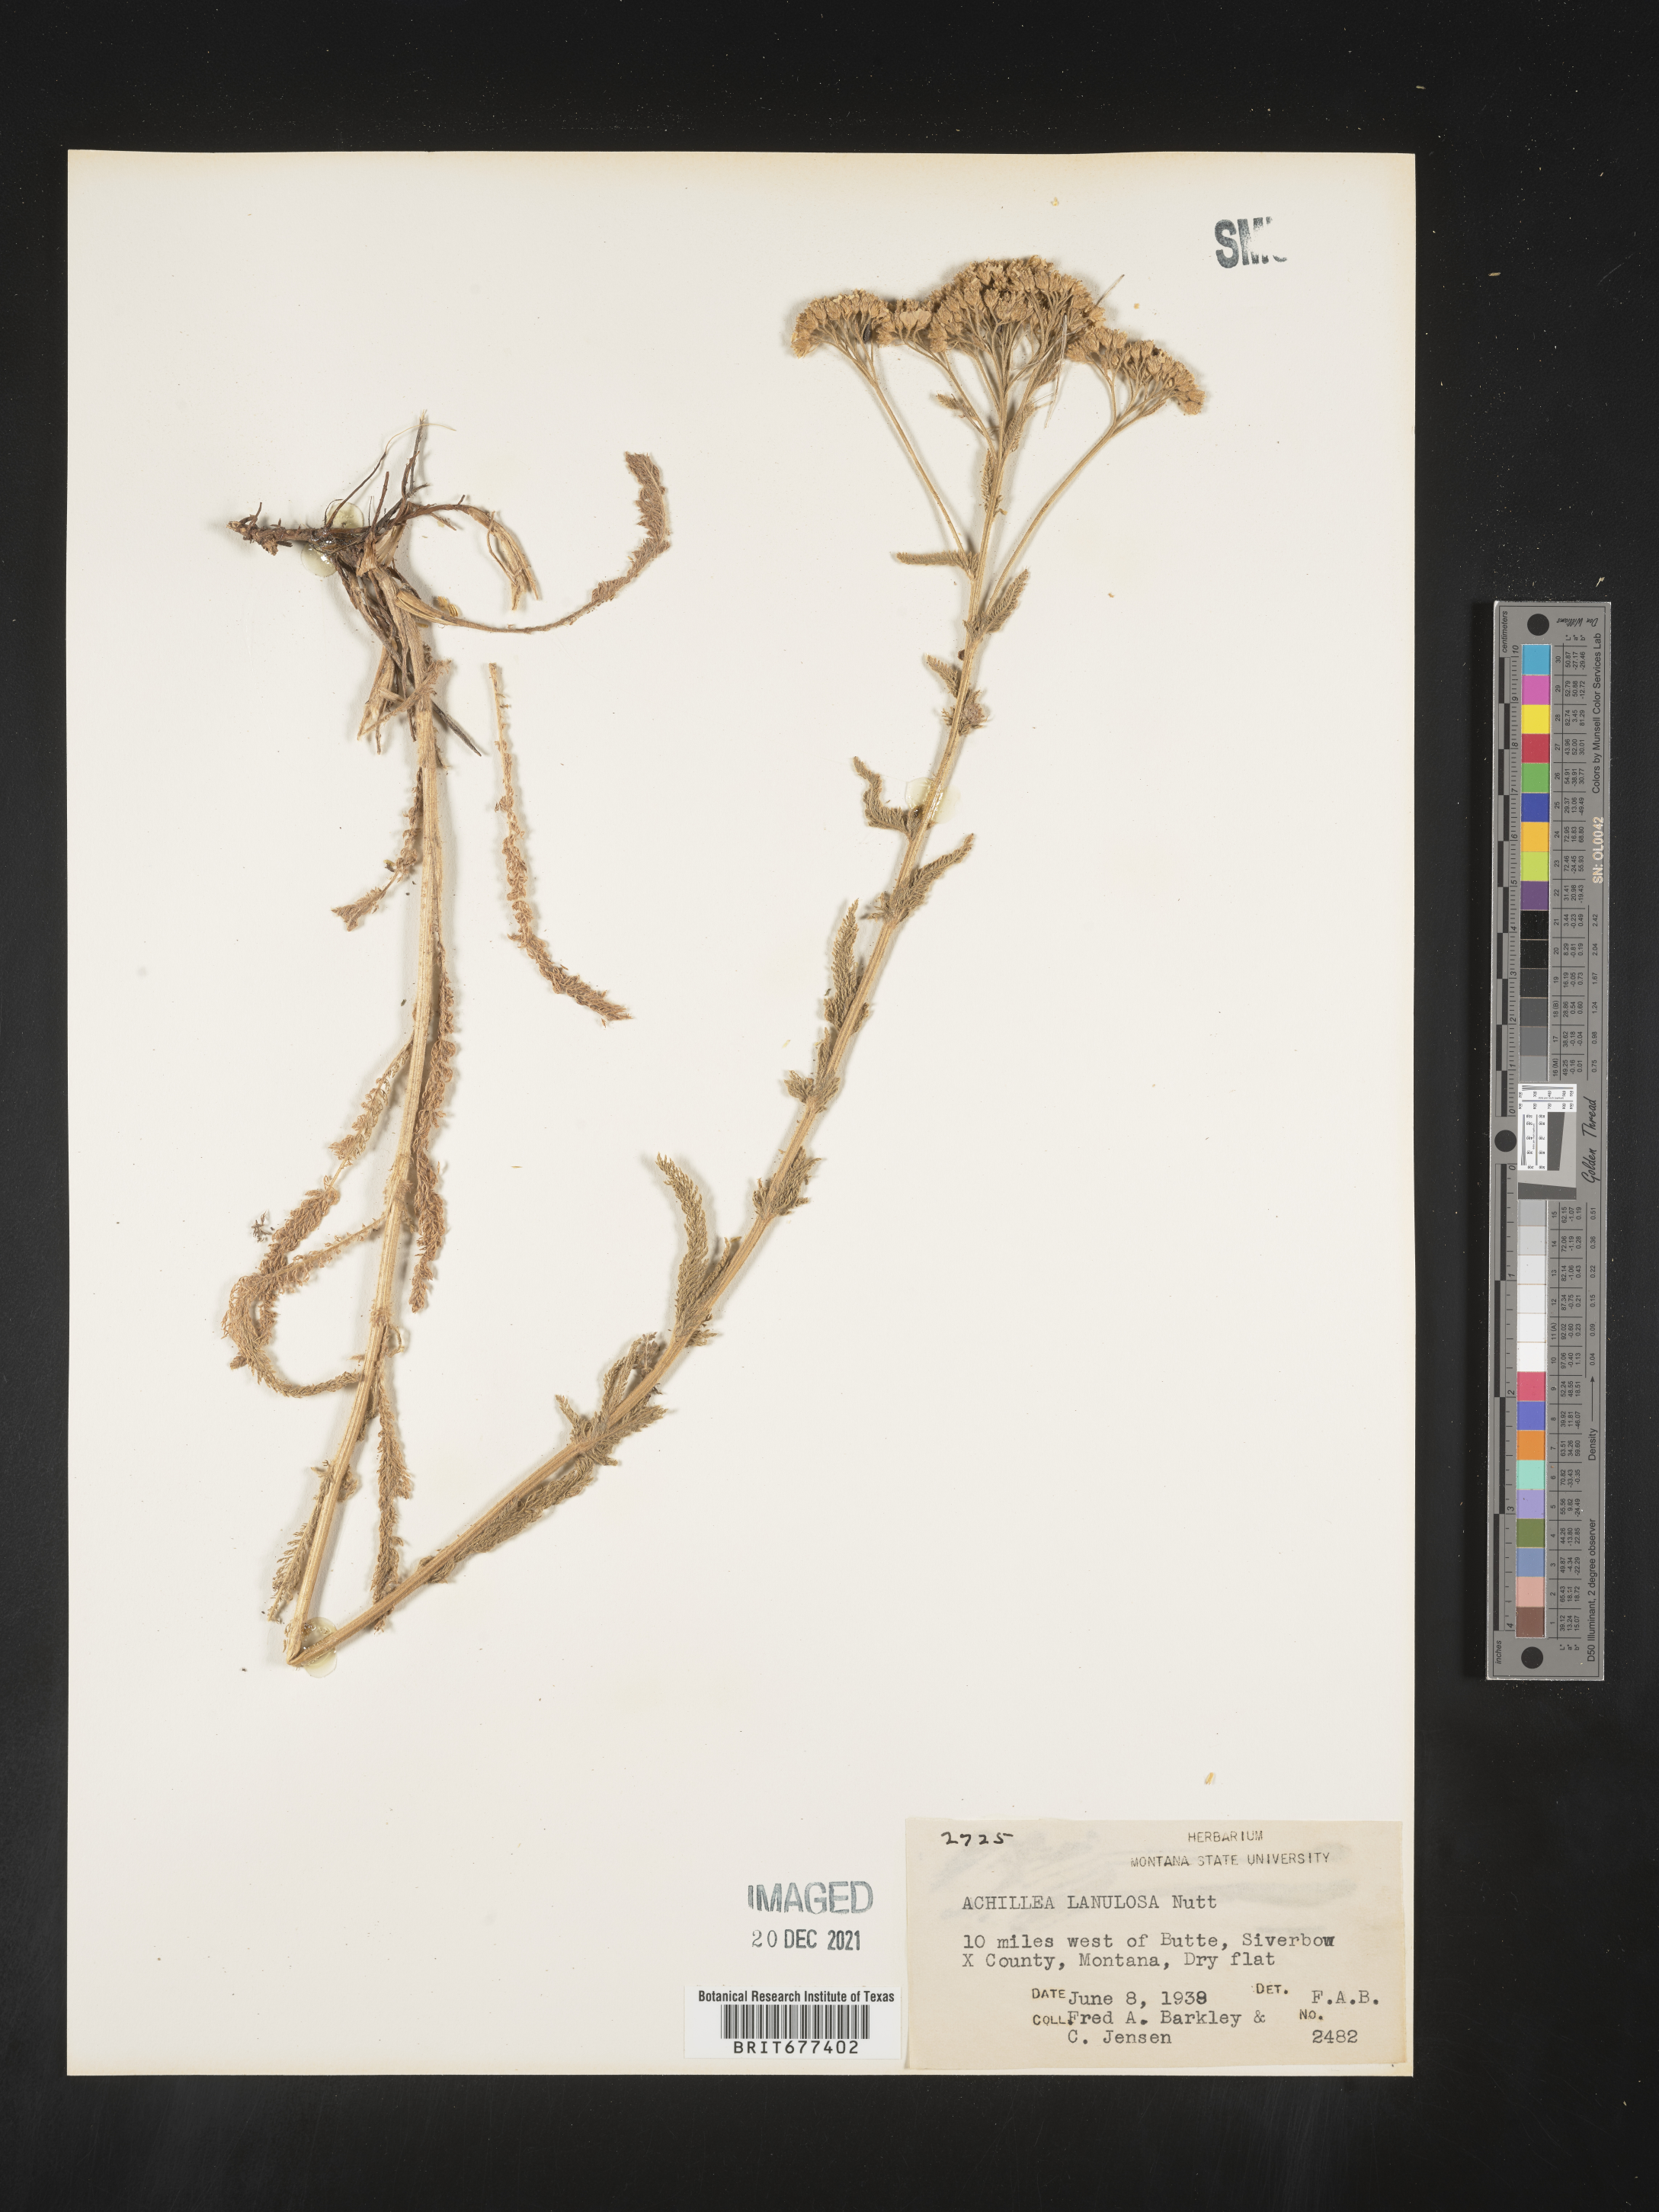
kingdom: Plantae
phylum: Tracheophyta
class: Magnoliopsida
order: Asterales
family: Asteraceae
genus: Achillea
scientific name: Achillea millefolium
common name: Yarrow
